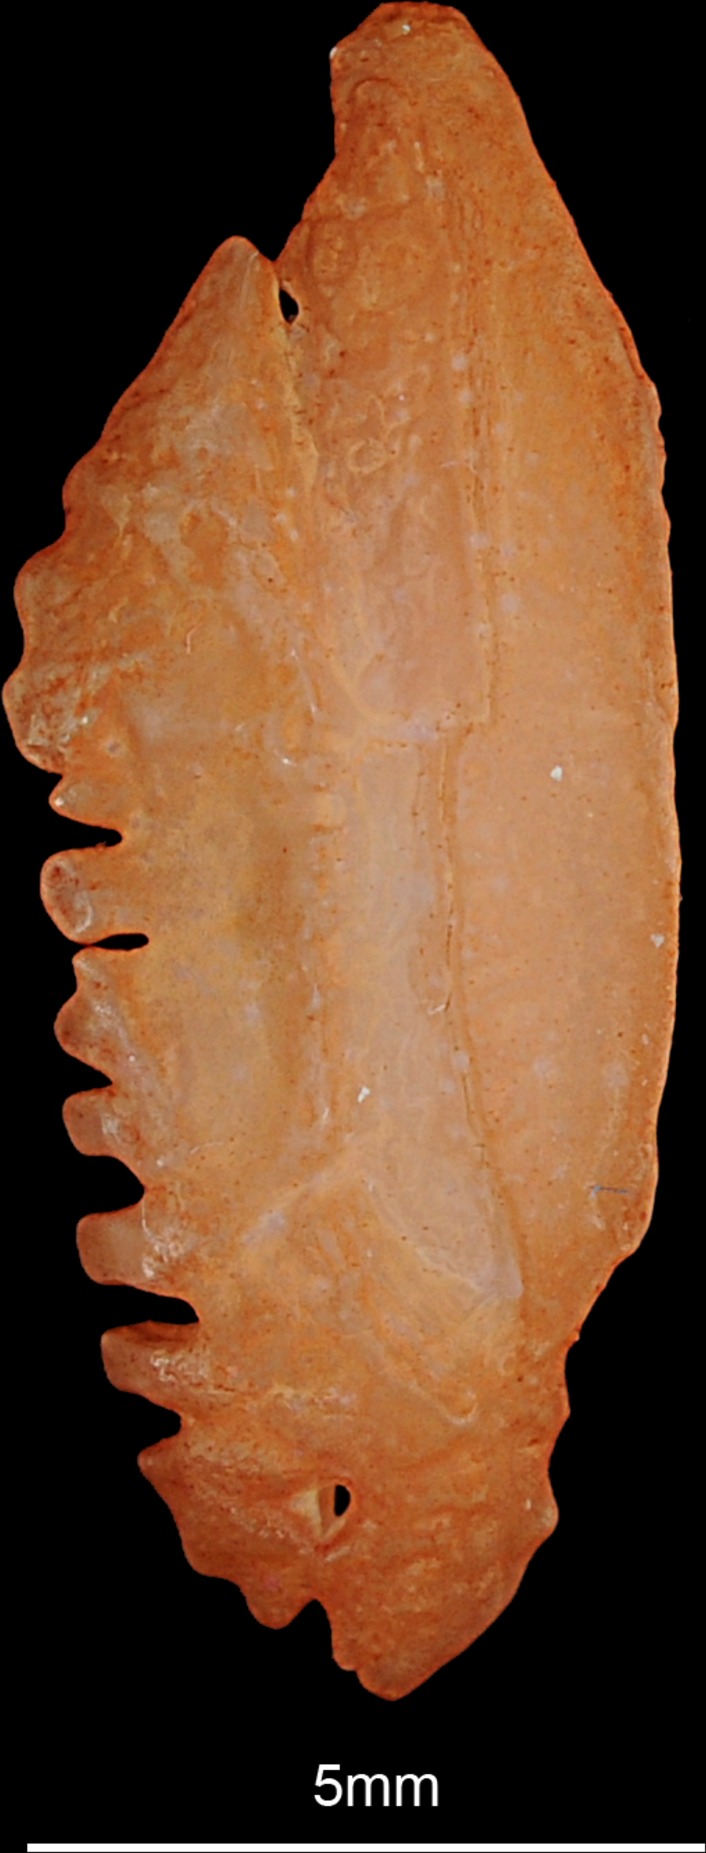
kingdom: Animalia
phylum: Chordata
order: Perciformes
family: Percidae
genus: Sander
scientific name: Sander lucioperca
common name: Pikeperch
